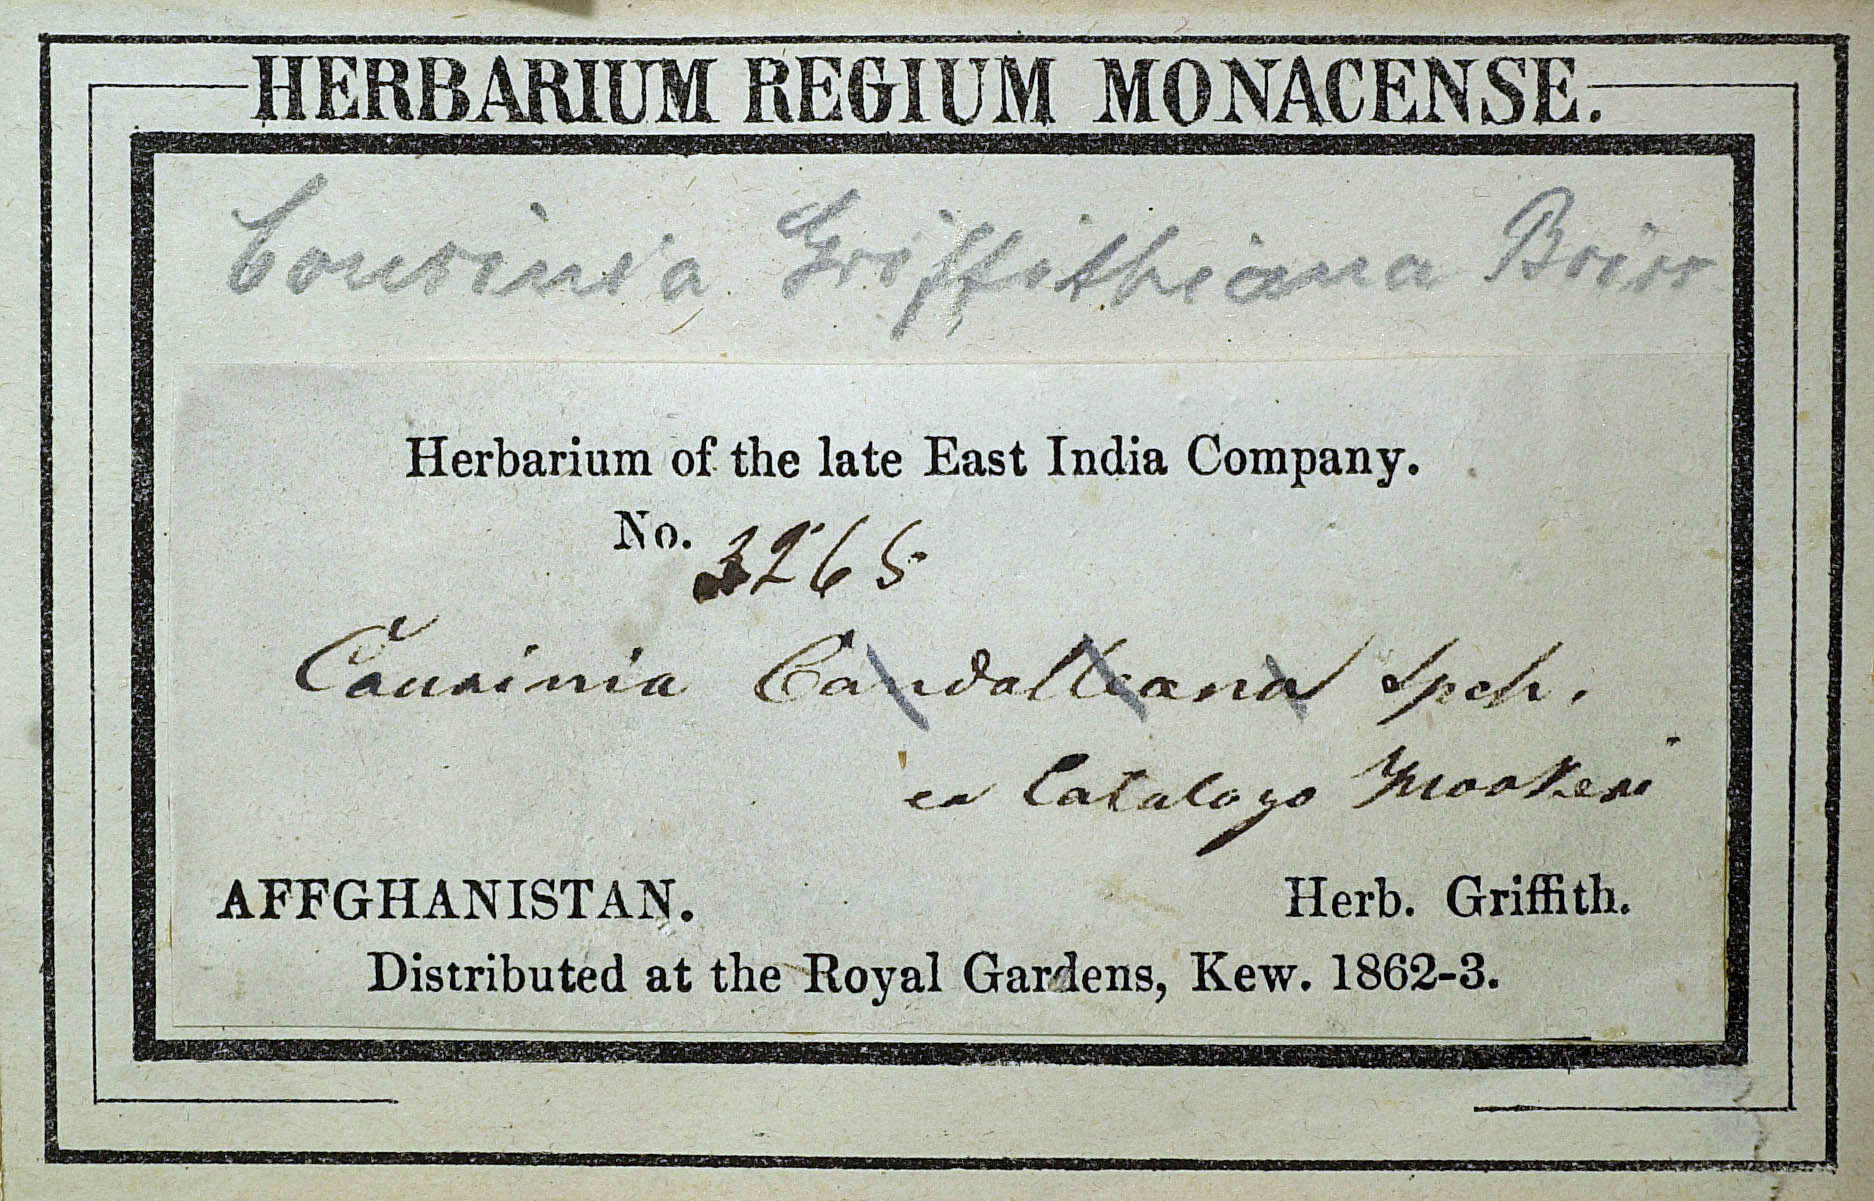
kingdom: Plantae
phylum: Tracheophyta
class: Magnoliopsida
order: Asterales
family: Asteraceae
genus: Cousinia
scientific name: Cousinia griffithiana
